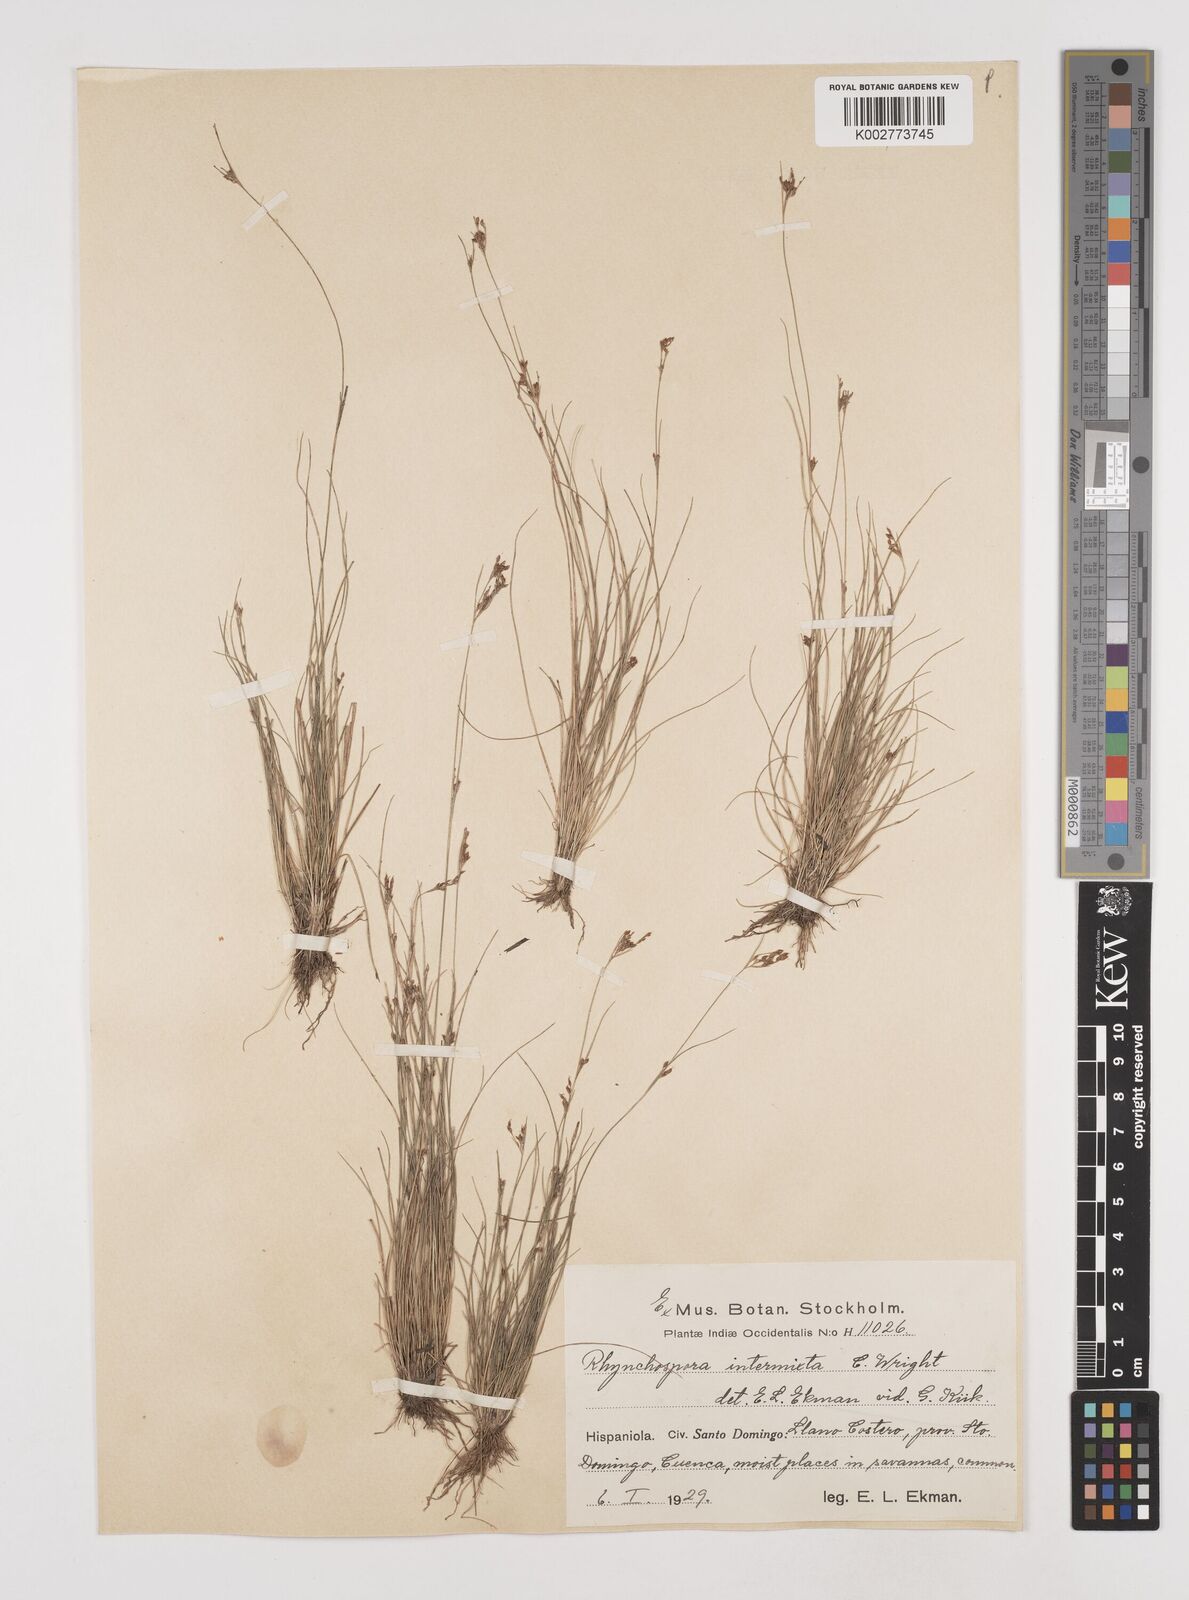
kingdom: Plantae
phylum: Tracheophyta
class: Liliopsida
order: Poales
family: Cyperaceae
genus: Rhynchospora
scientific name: Rhynchospora intermixta
